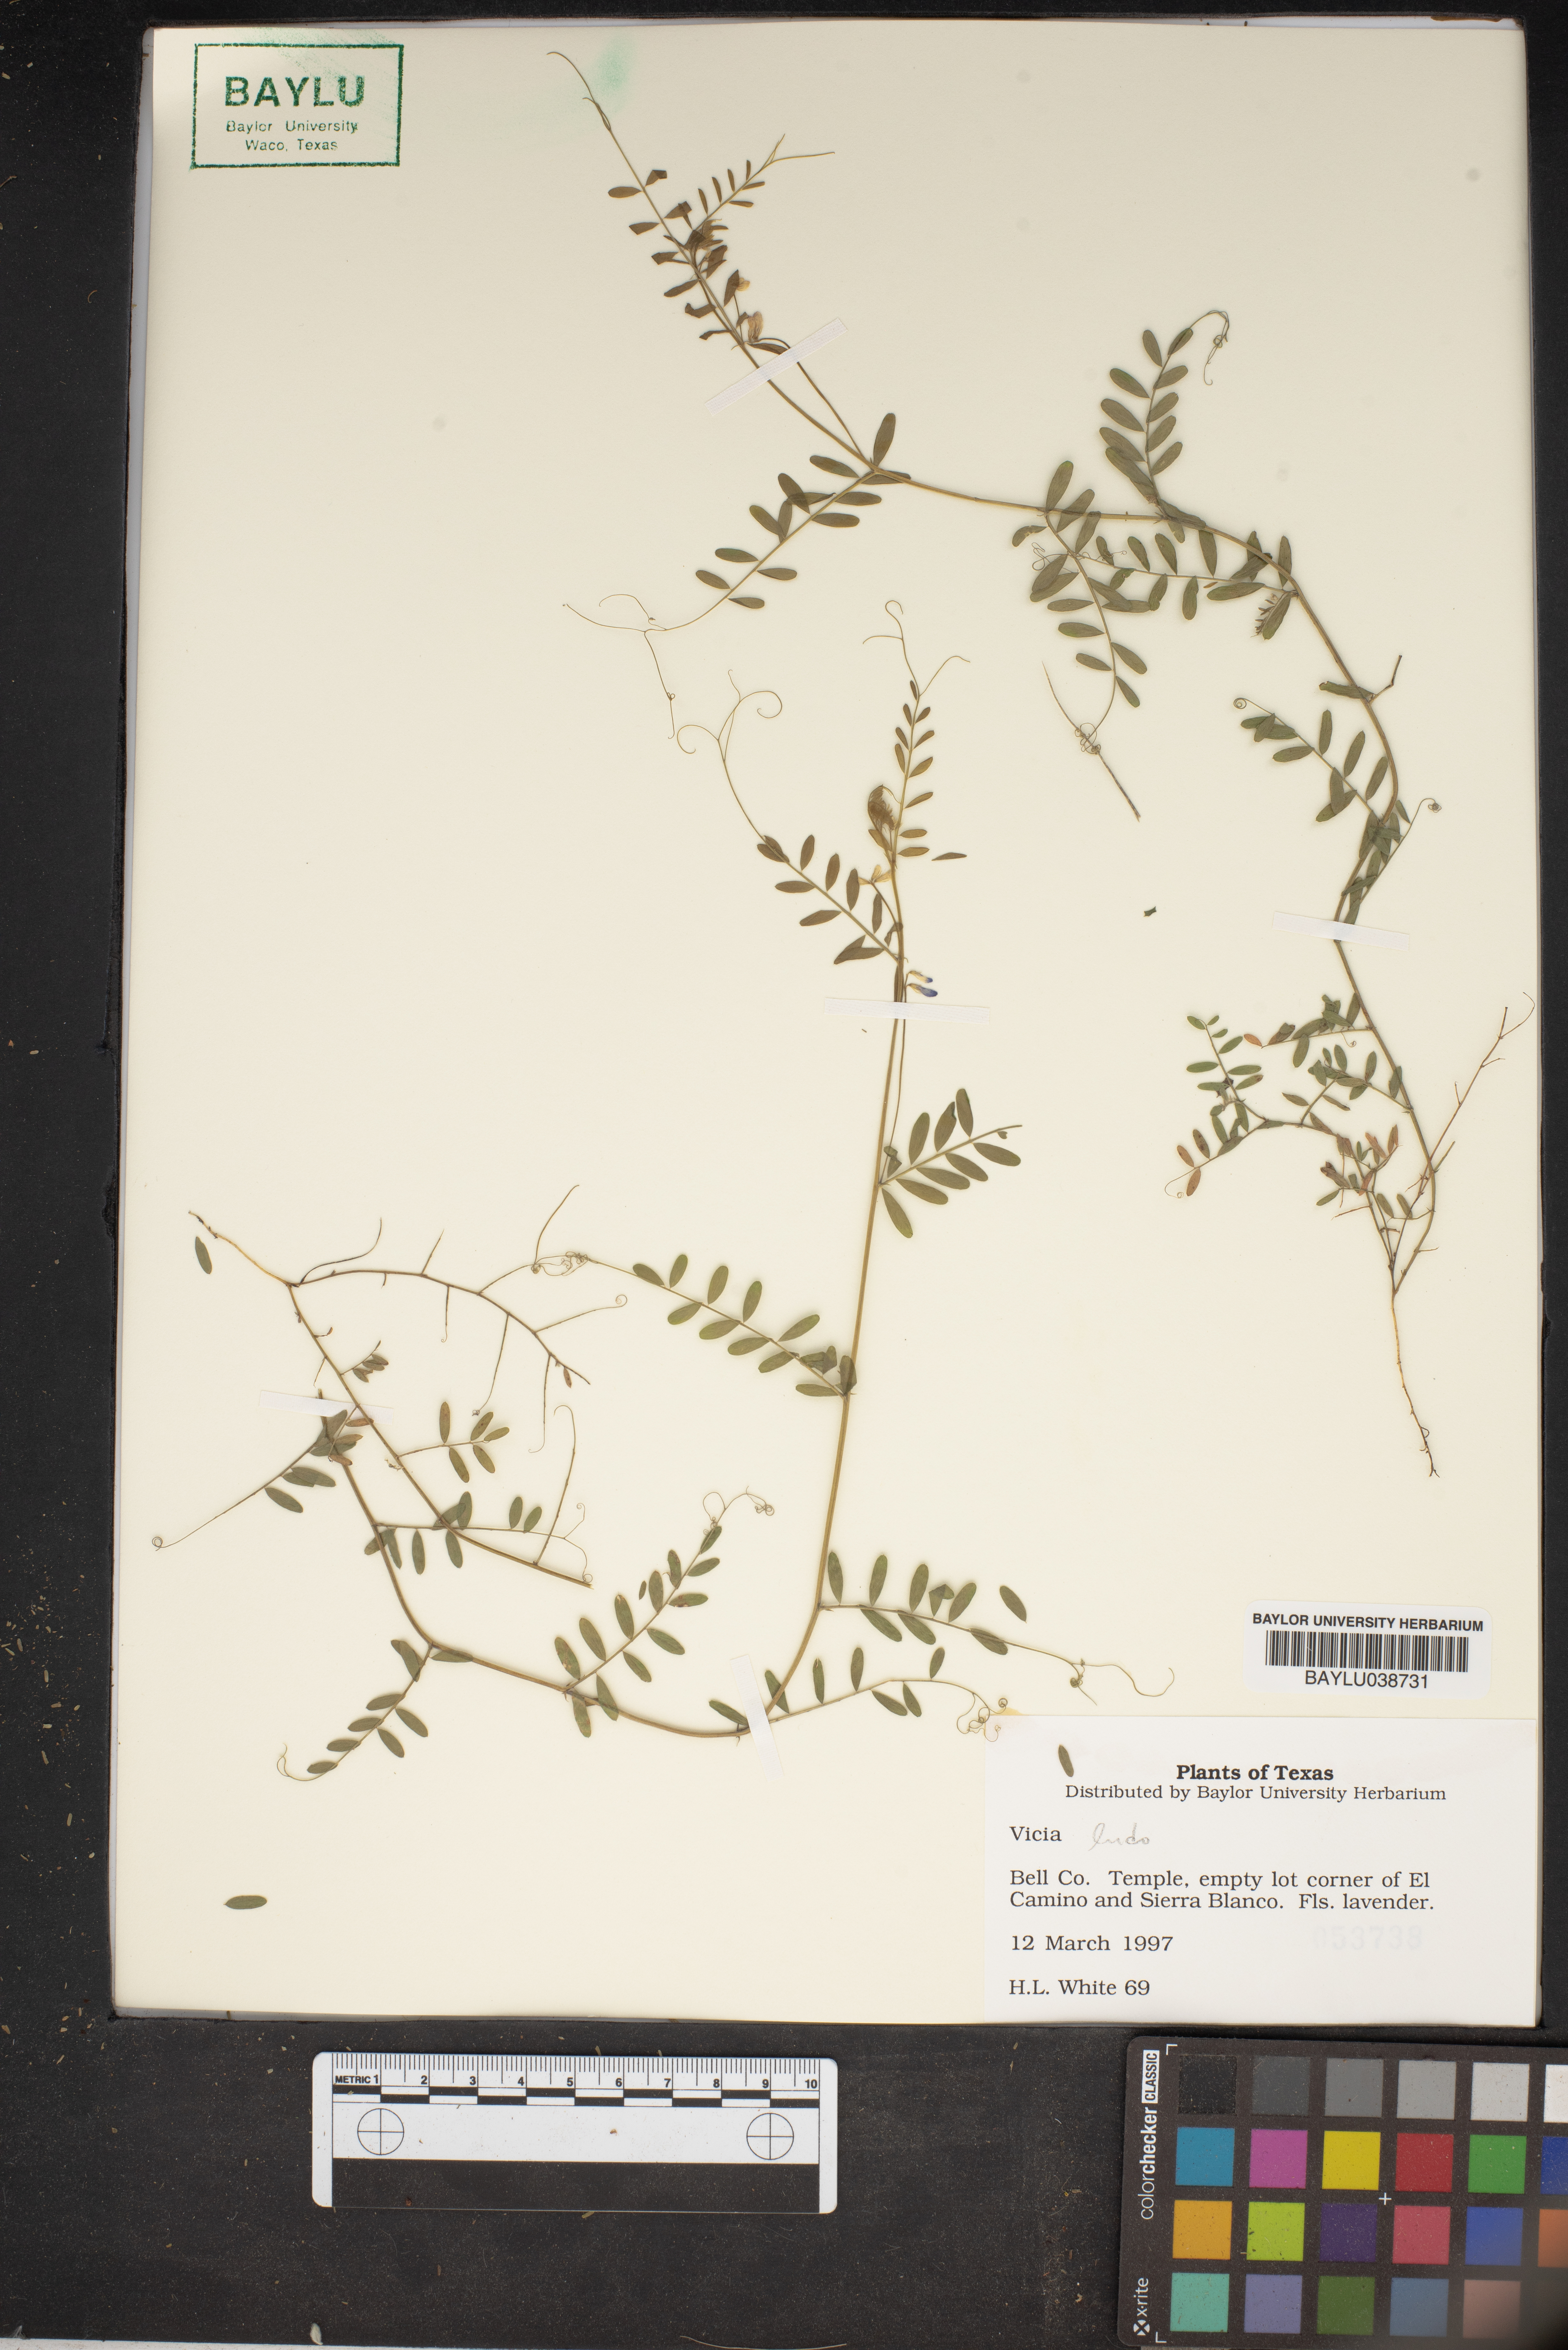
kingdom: Plantae
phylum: Tracheophyta
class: Magnoliopsida
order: Fabales
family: Fabaceae
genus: Vicia
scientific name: Vicia
